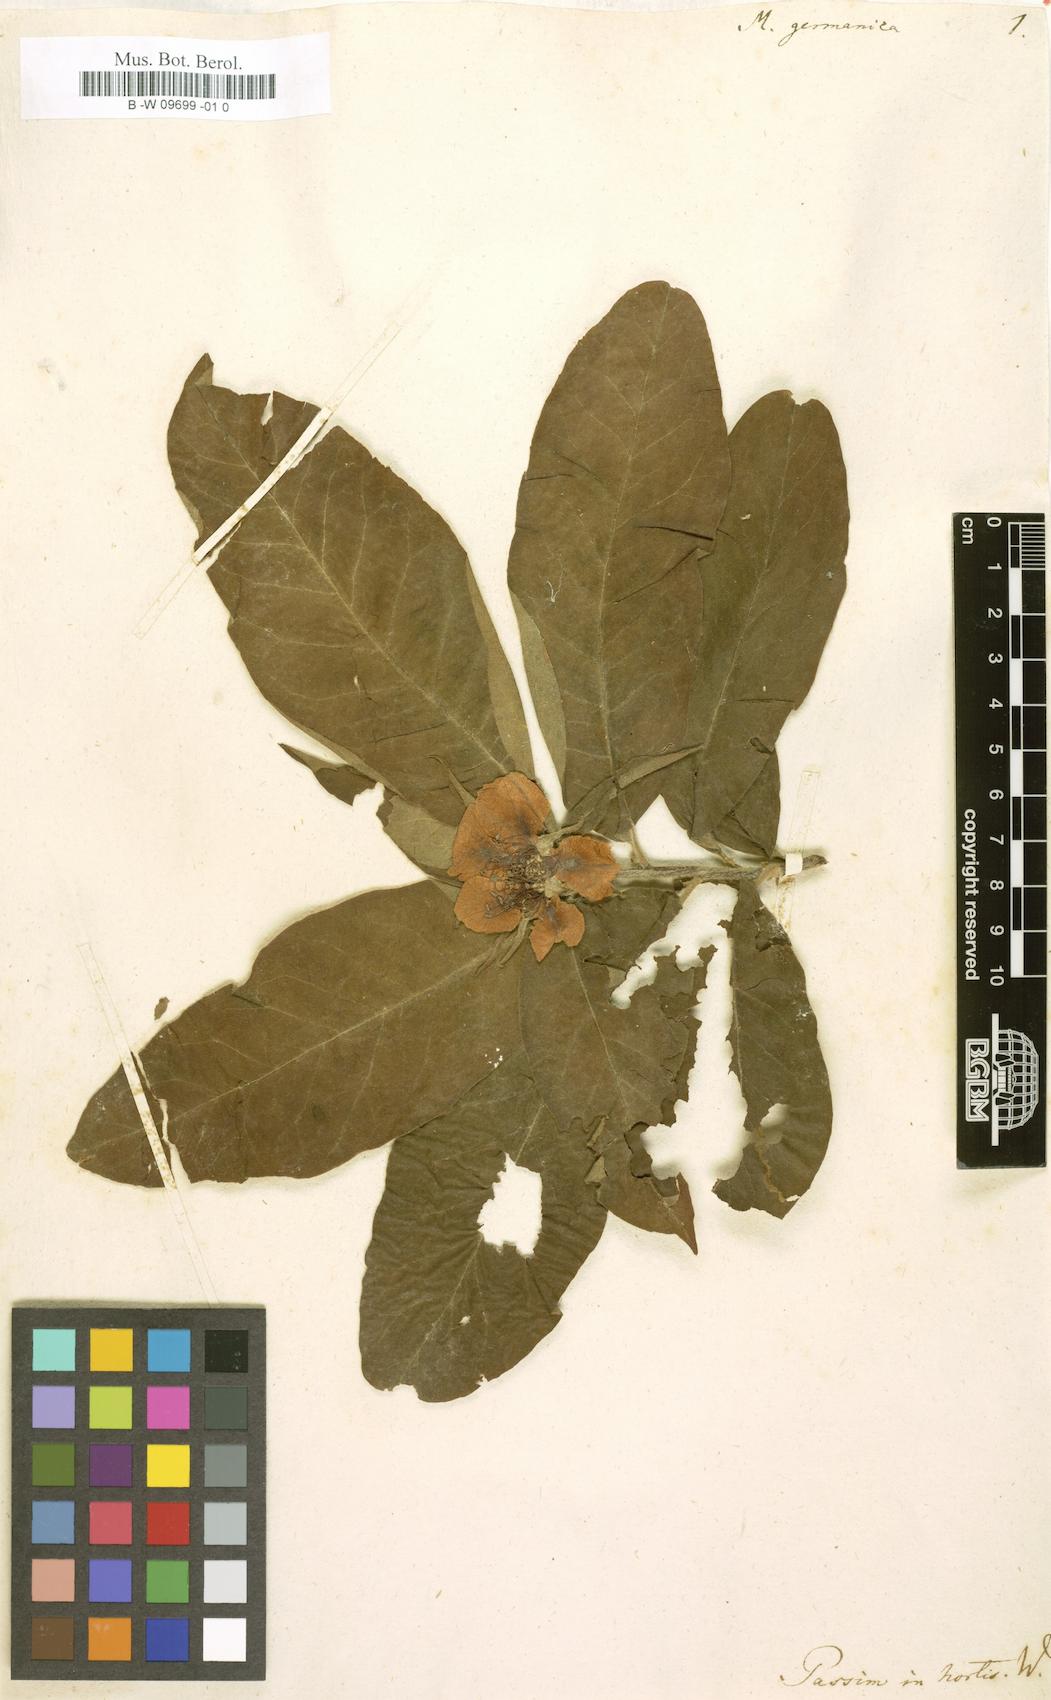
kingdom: Plantae
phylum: Tracheophyta
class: Magnoliopsida
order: Rosales
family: Rosaceae
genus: Mespilus
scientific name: Mespilus germanica
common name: Medlar
